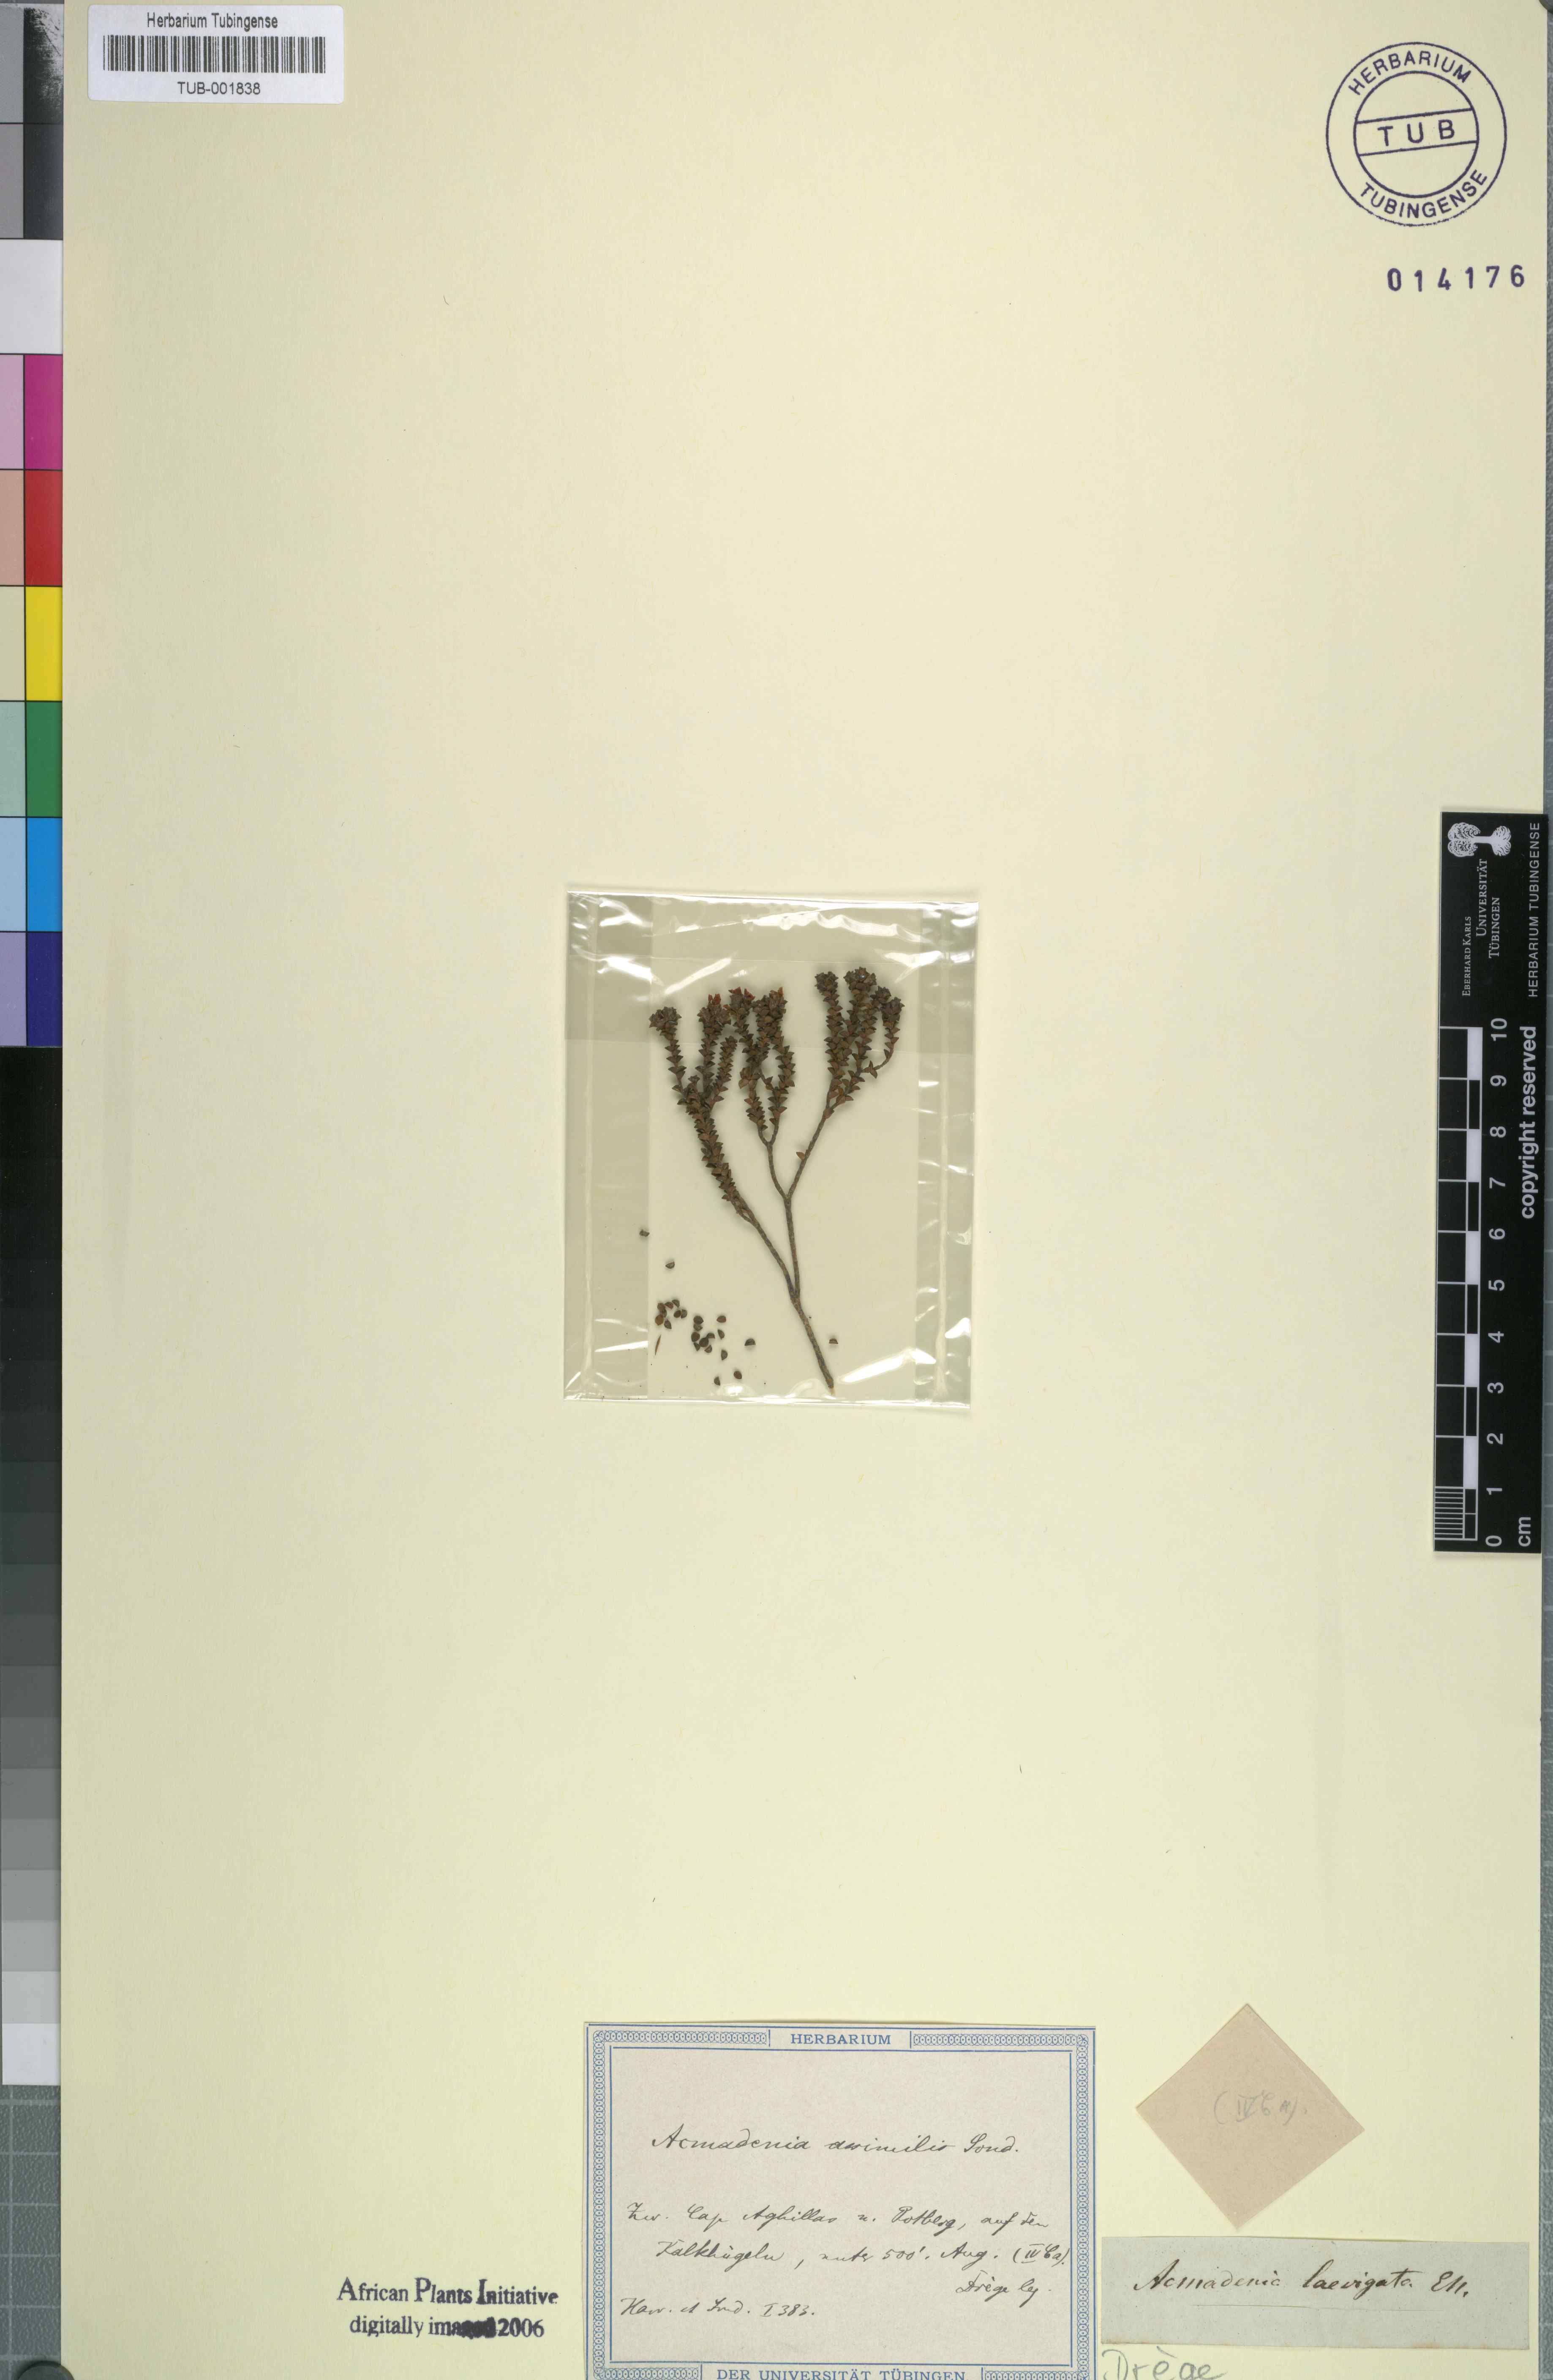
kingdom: Plantae
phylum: Tracheophyta
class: Magnoliopsida
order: Sapindales
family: Rutaceae
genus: Euchaetis
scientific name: Euchaetis laevigata
